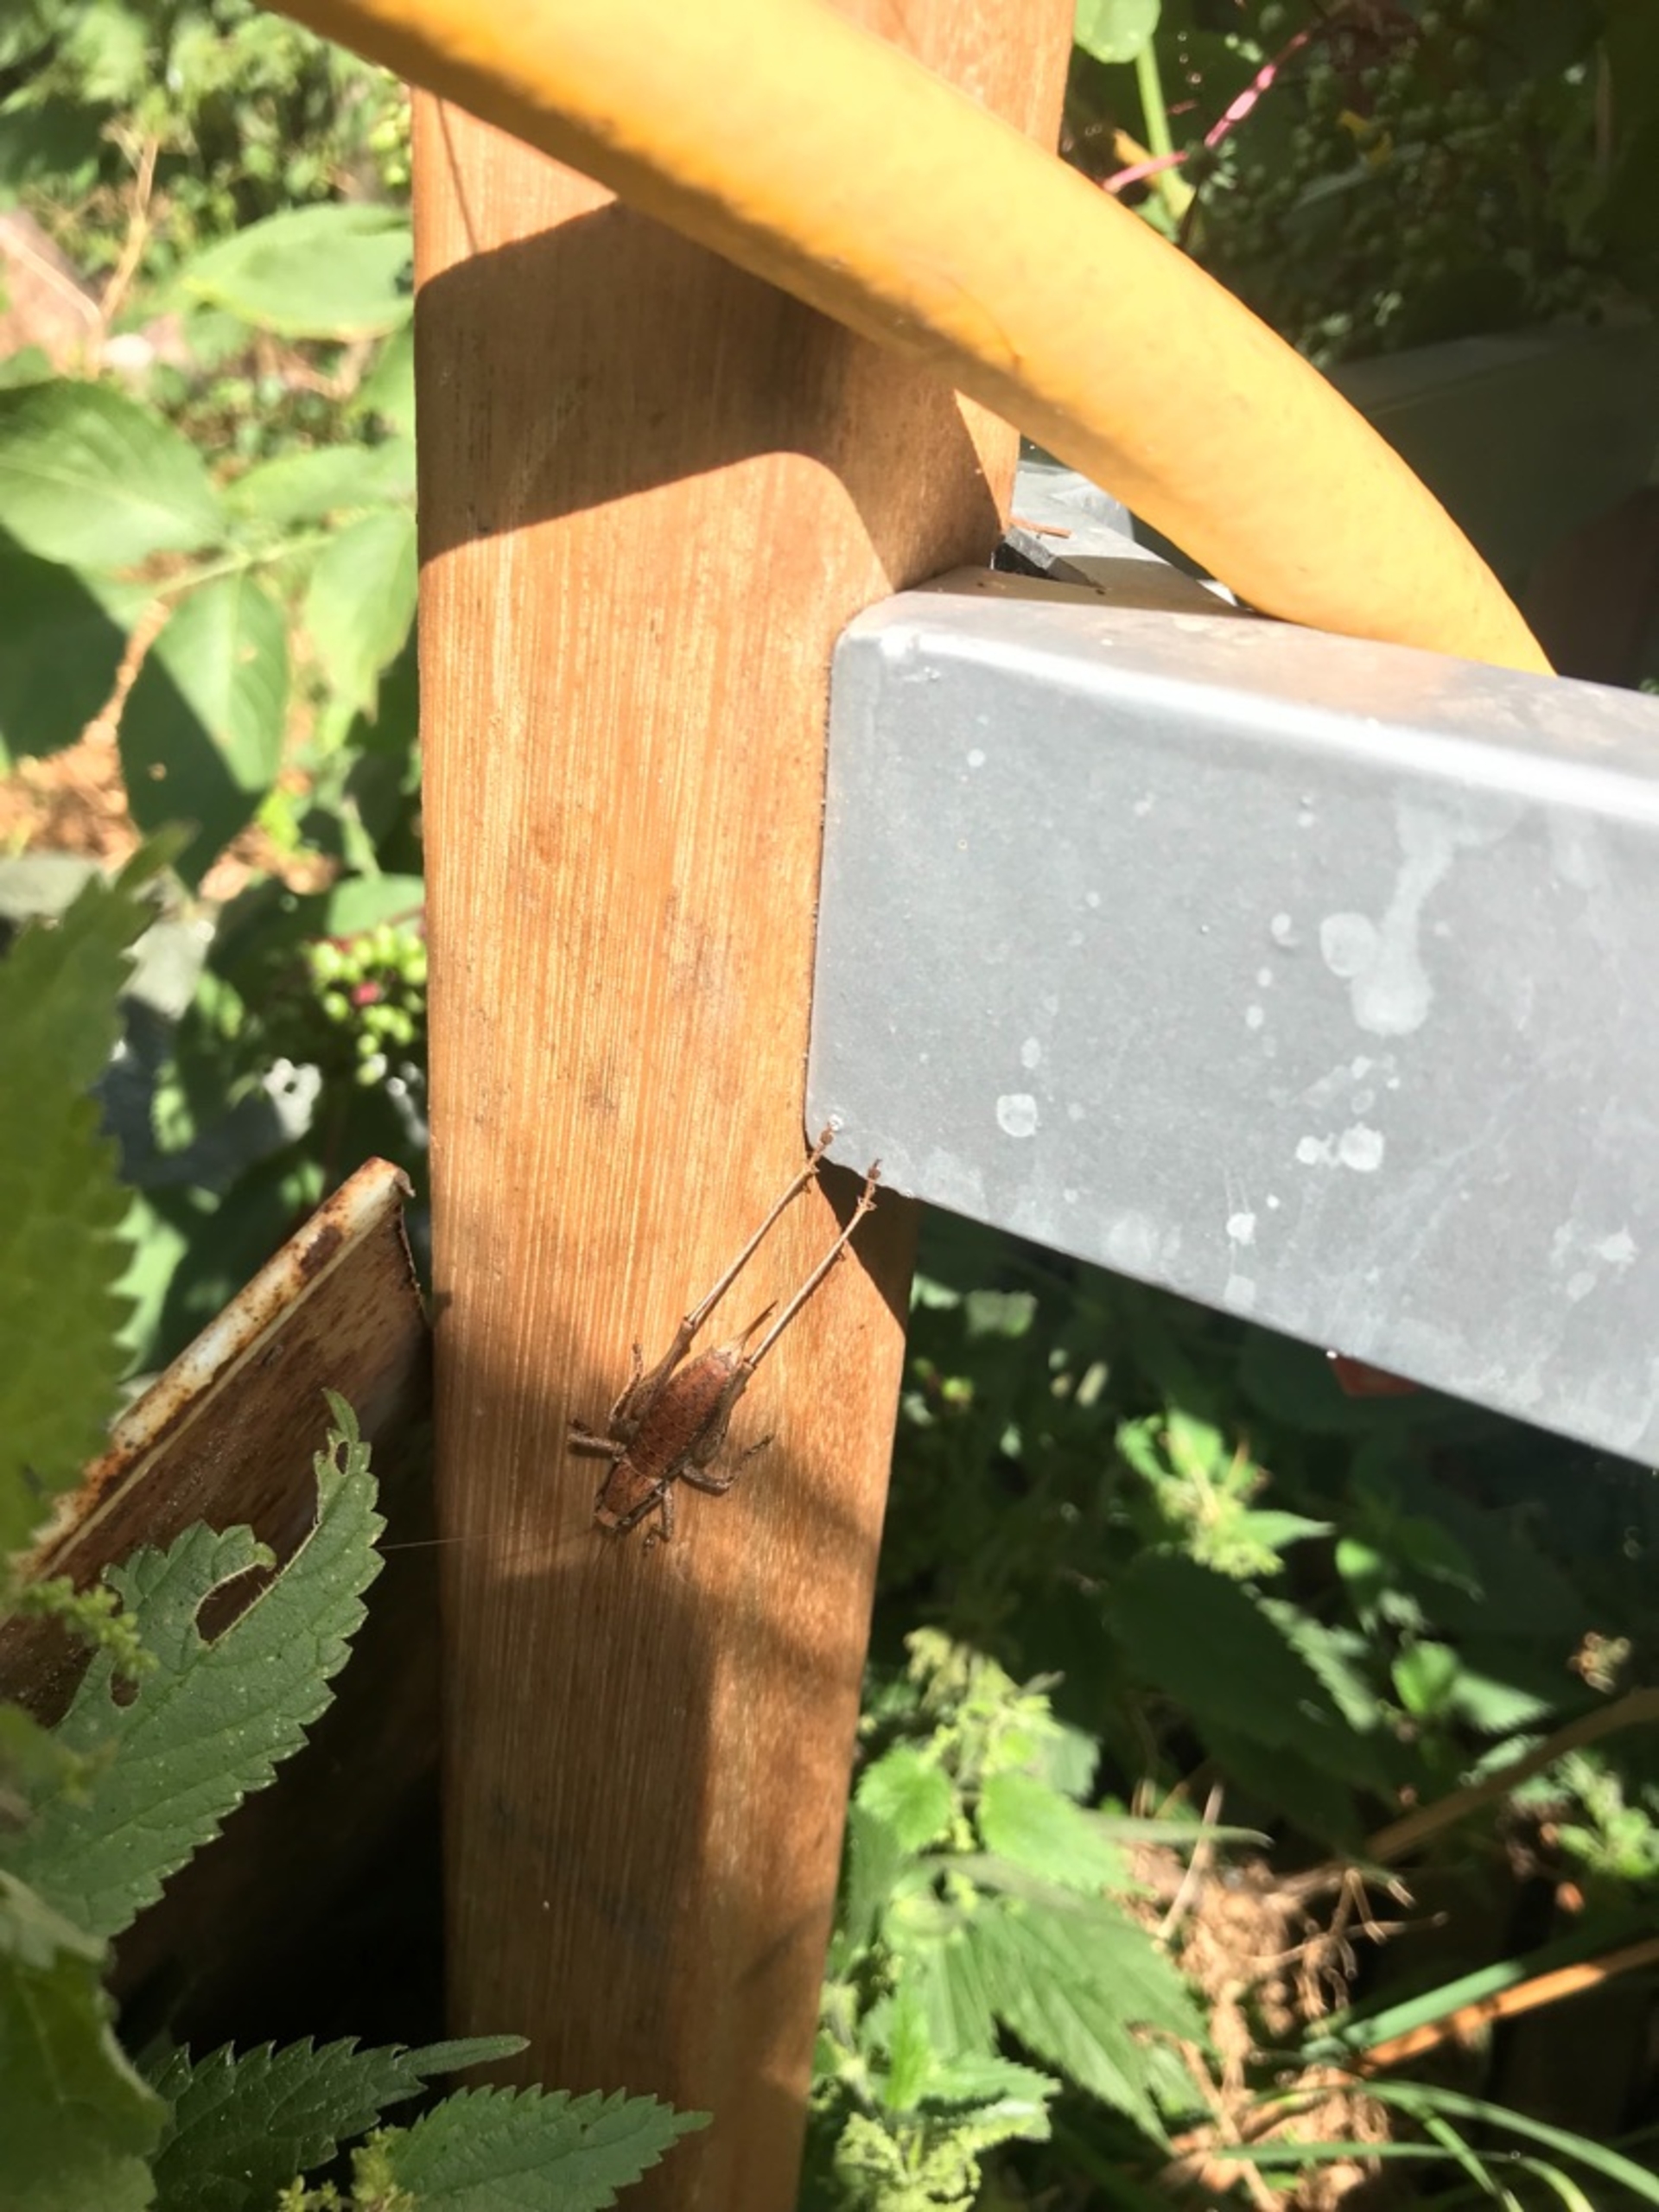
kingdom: Animalia
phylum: Arthropoda
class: Insecta
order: Orthoptera
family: Tettigoniidae
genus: Pholidoptera
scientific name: Pholidoptera griseoaptera
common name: Buskgræshoppe
